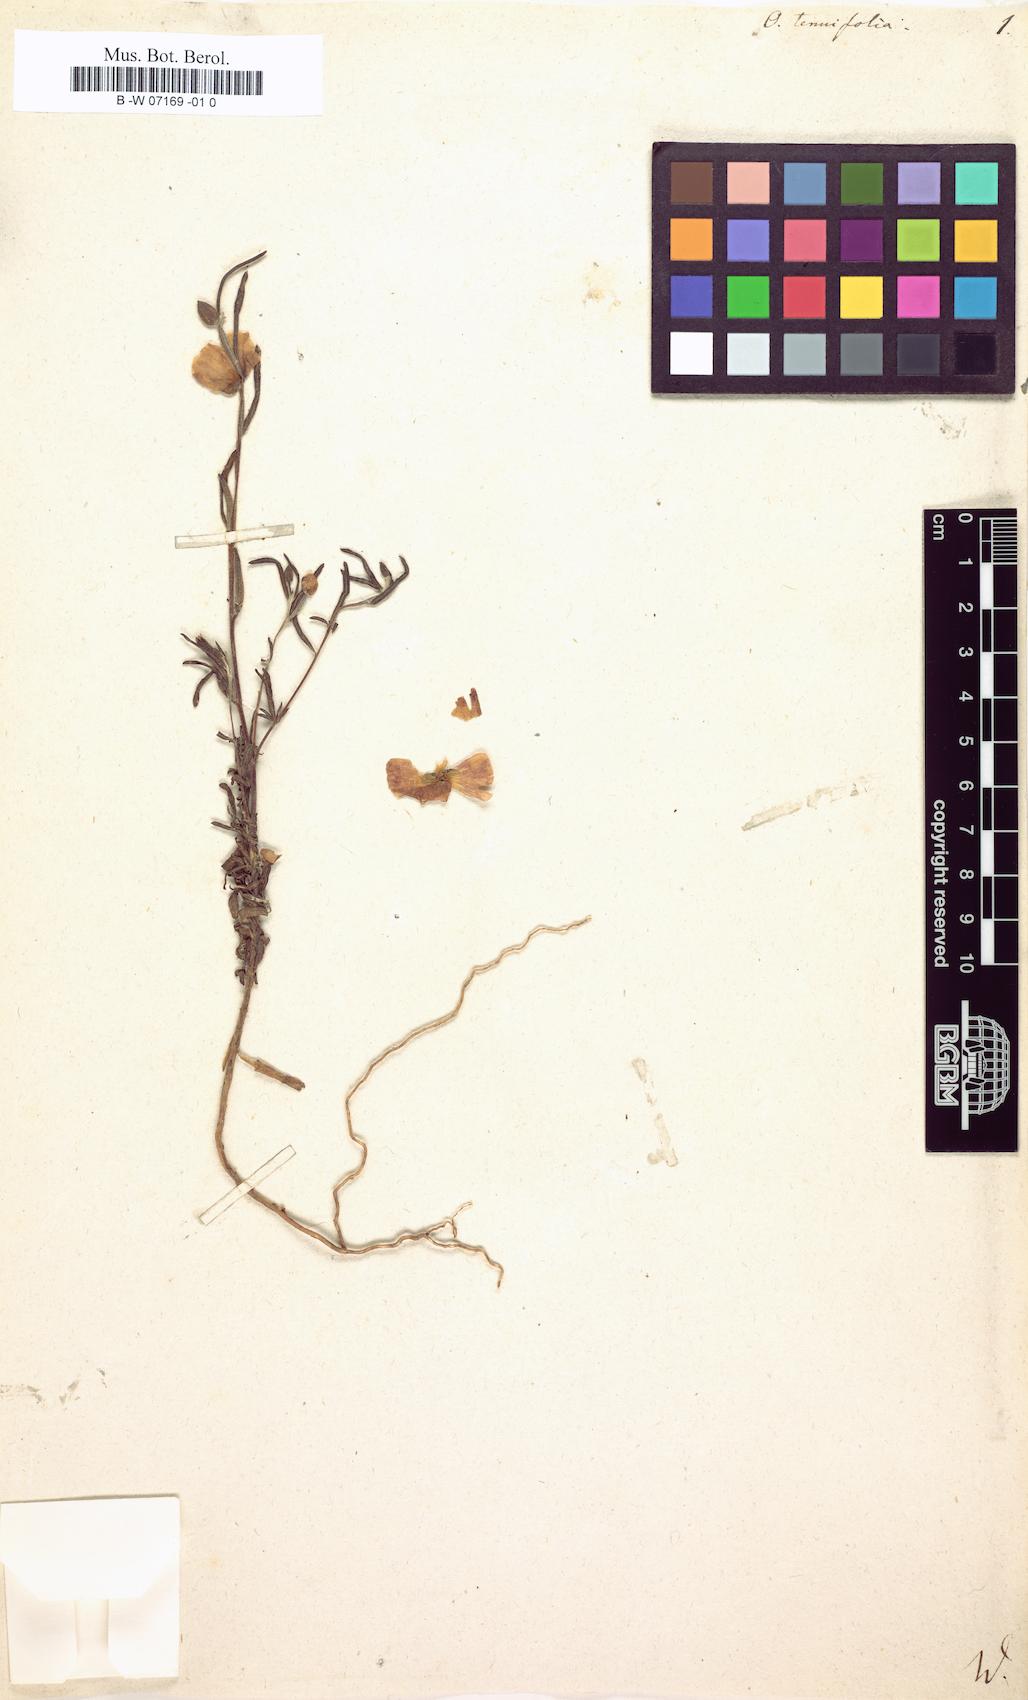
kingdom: Plantae
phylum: Tracheophyta
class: Magnoliopsida
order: Myrtales
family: Onagraceae
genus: Clarkia
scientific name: Clarkia tenella
